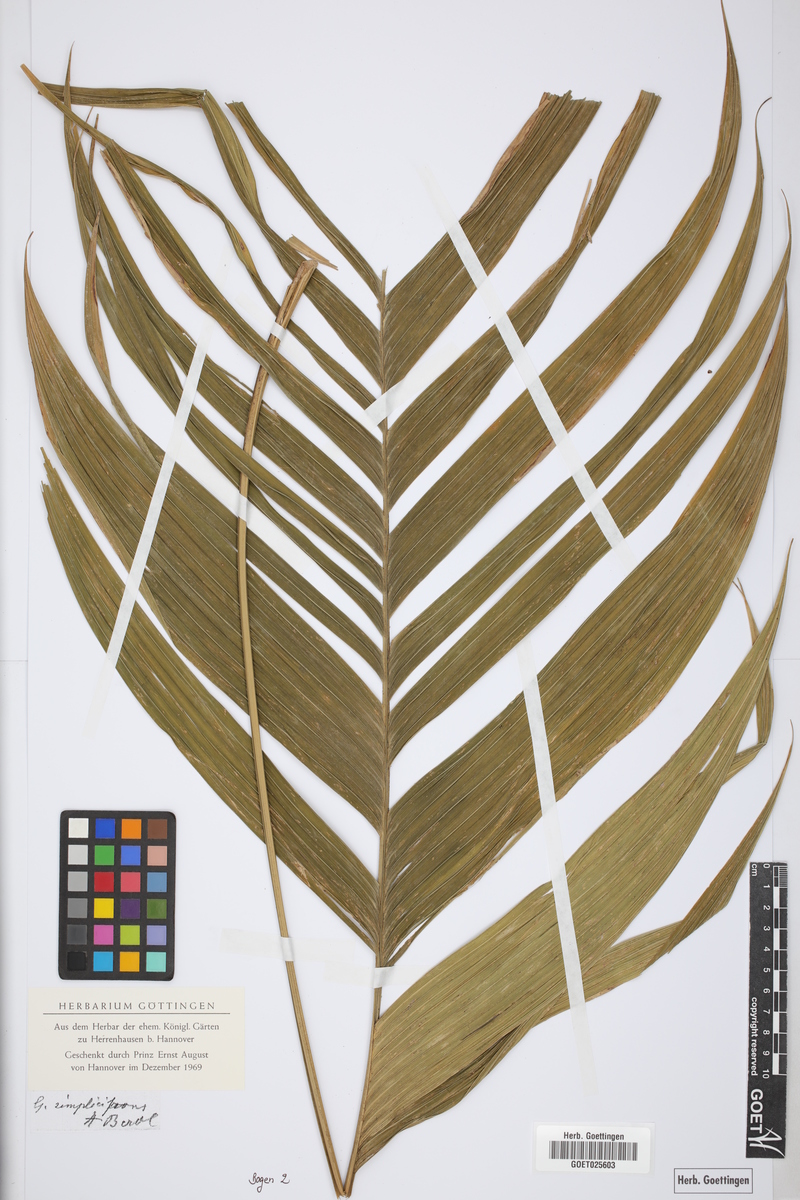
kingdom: Plantae
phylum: Tracheophyta
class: Liliopsida
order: Arecales
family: Arecaceae
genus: Geonoma
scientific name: Geonoma simplicifrons
